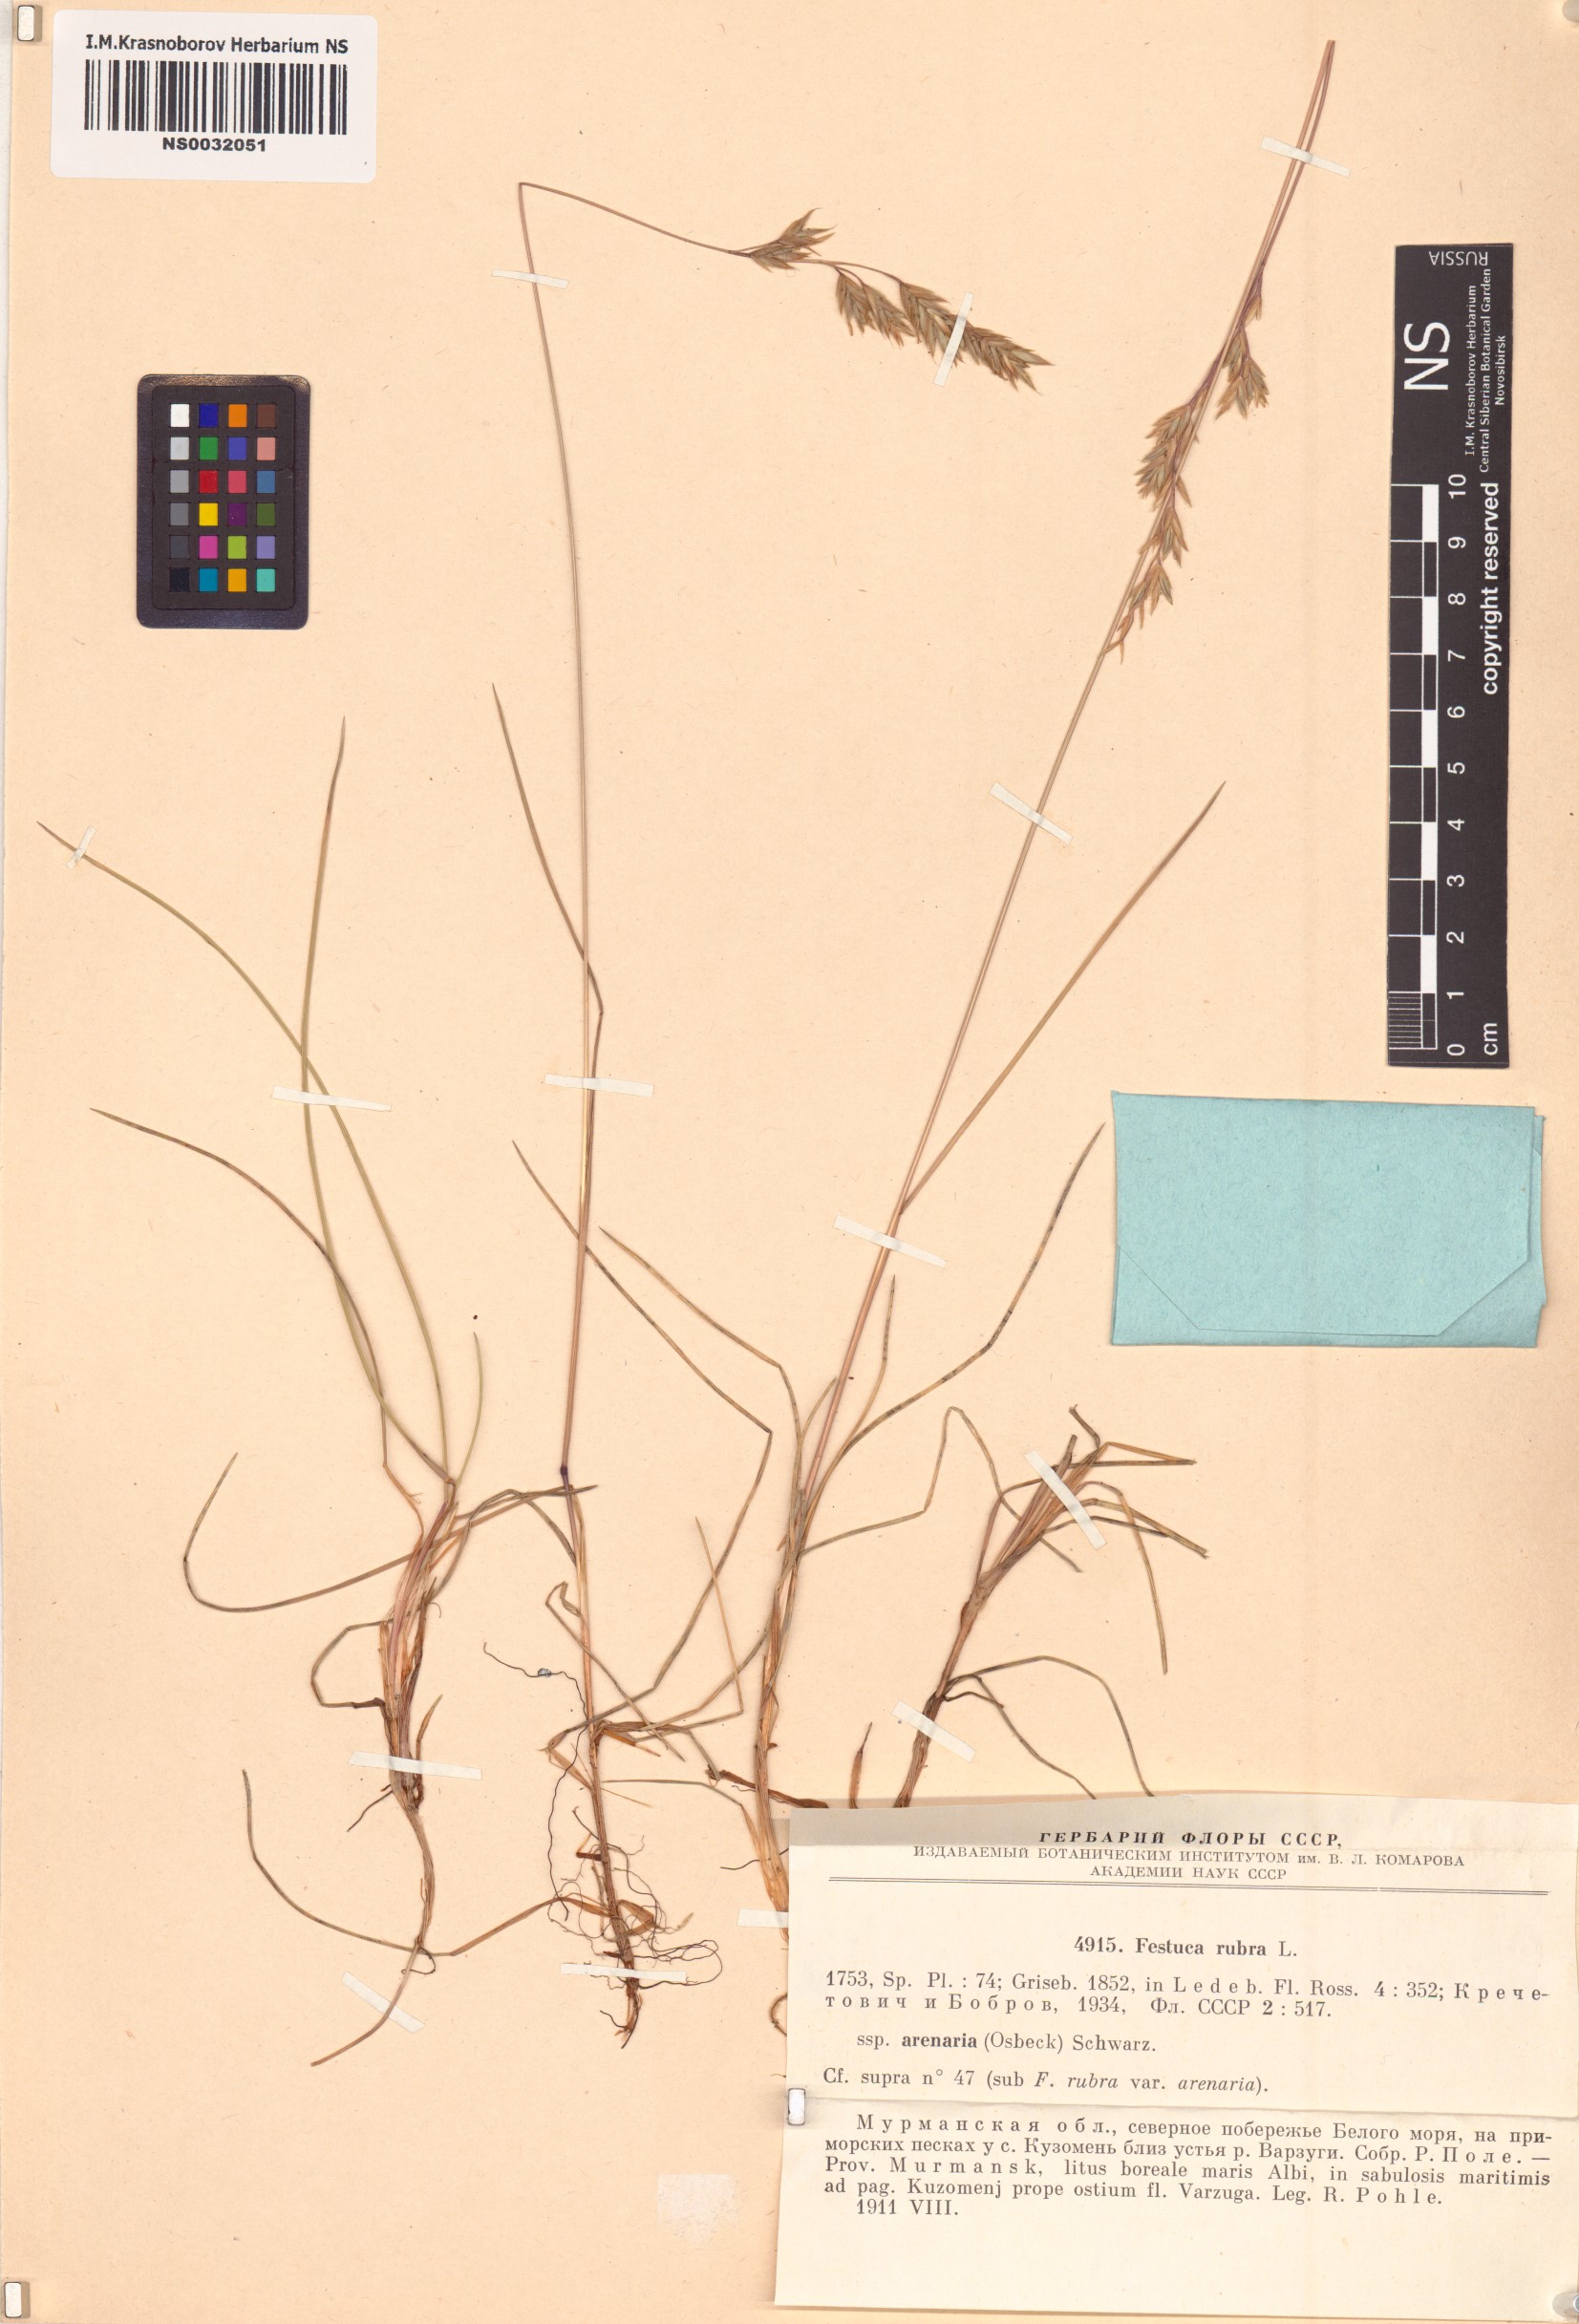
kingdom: Plantae
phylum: Tracheophyta
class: Liliopsida
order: Poales
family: Poaceae
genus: Festuca
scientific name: Festuca rubra
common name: Red fescue
